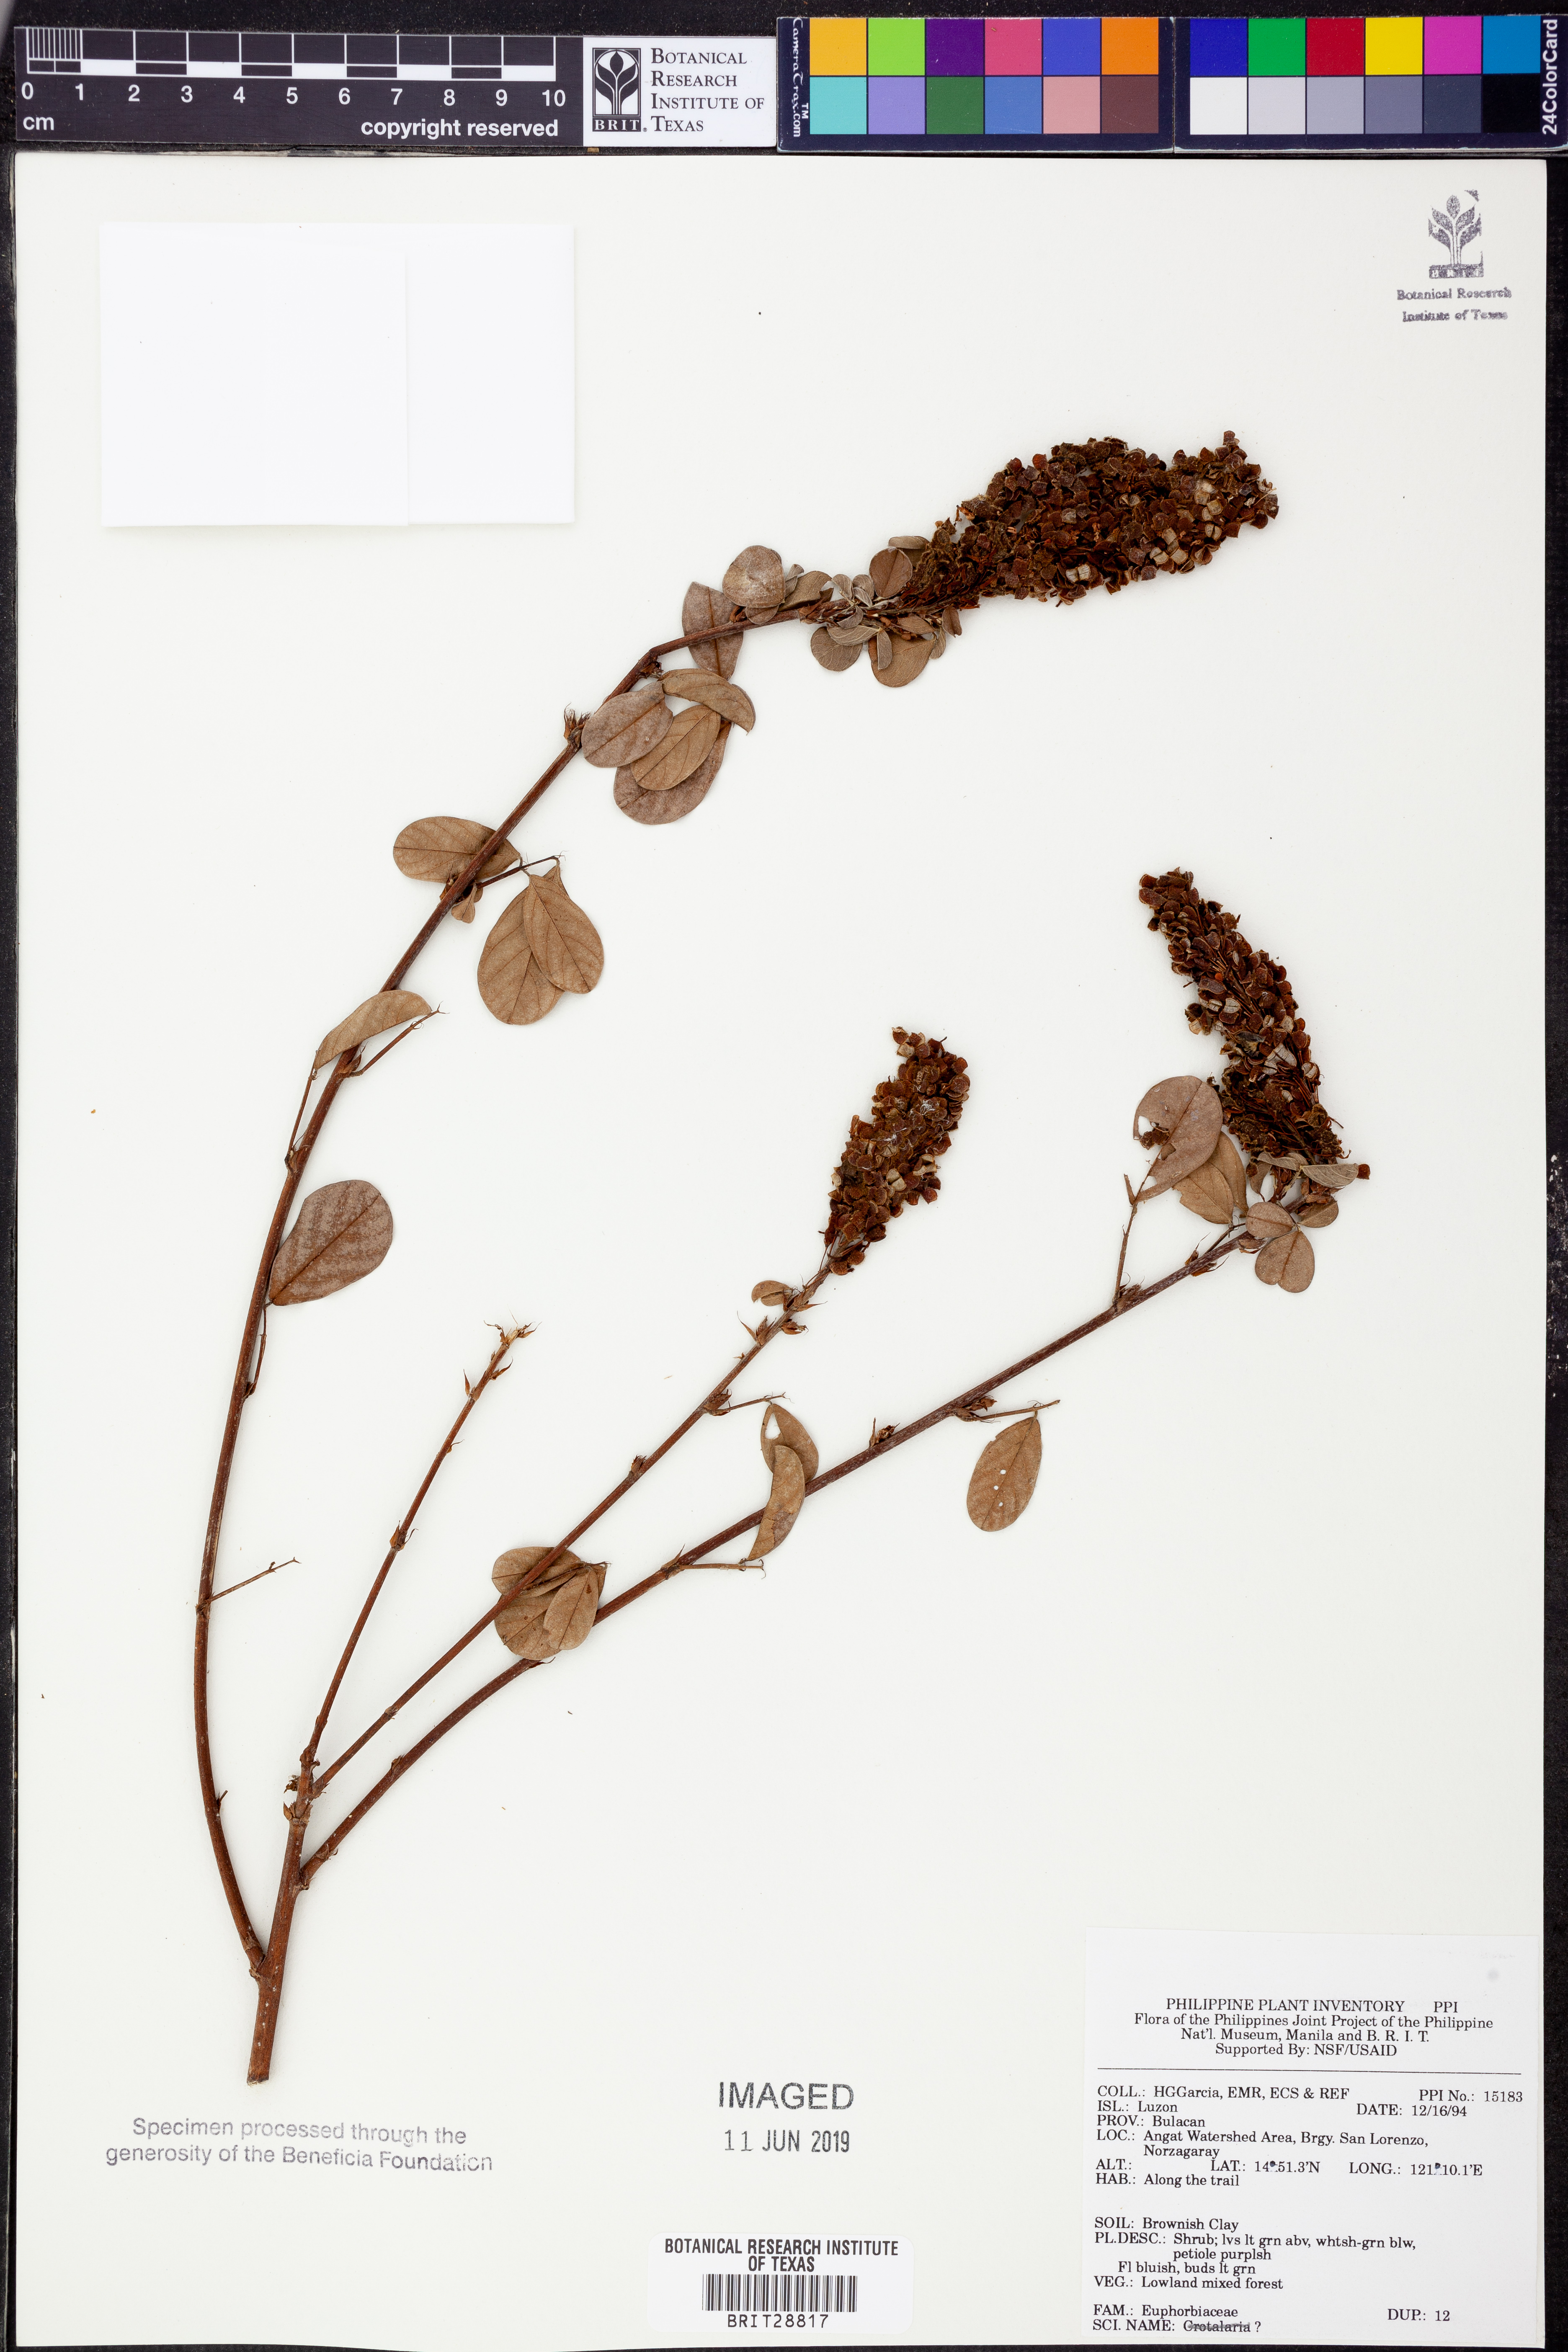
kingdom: Plantae
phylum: Tracheophyta
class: Magnoliopsida
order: Malpighiales
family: Euphorbiaceae
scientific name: Euphorbiaceae
